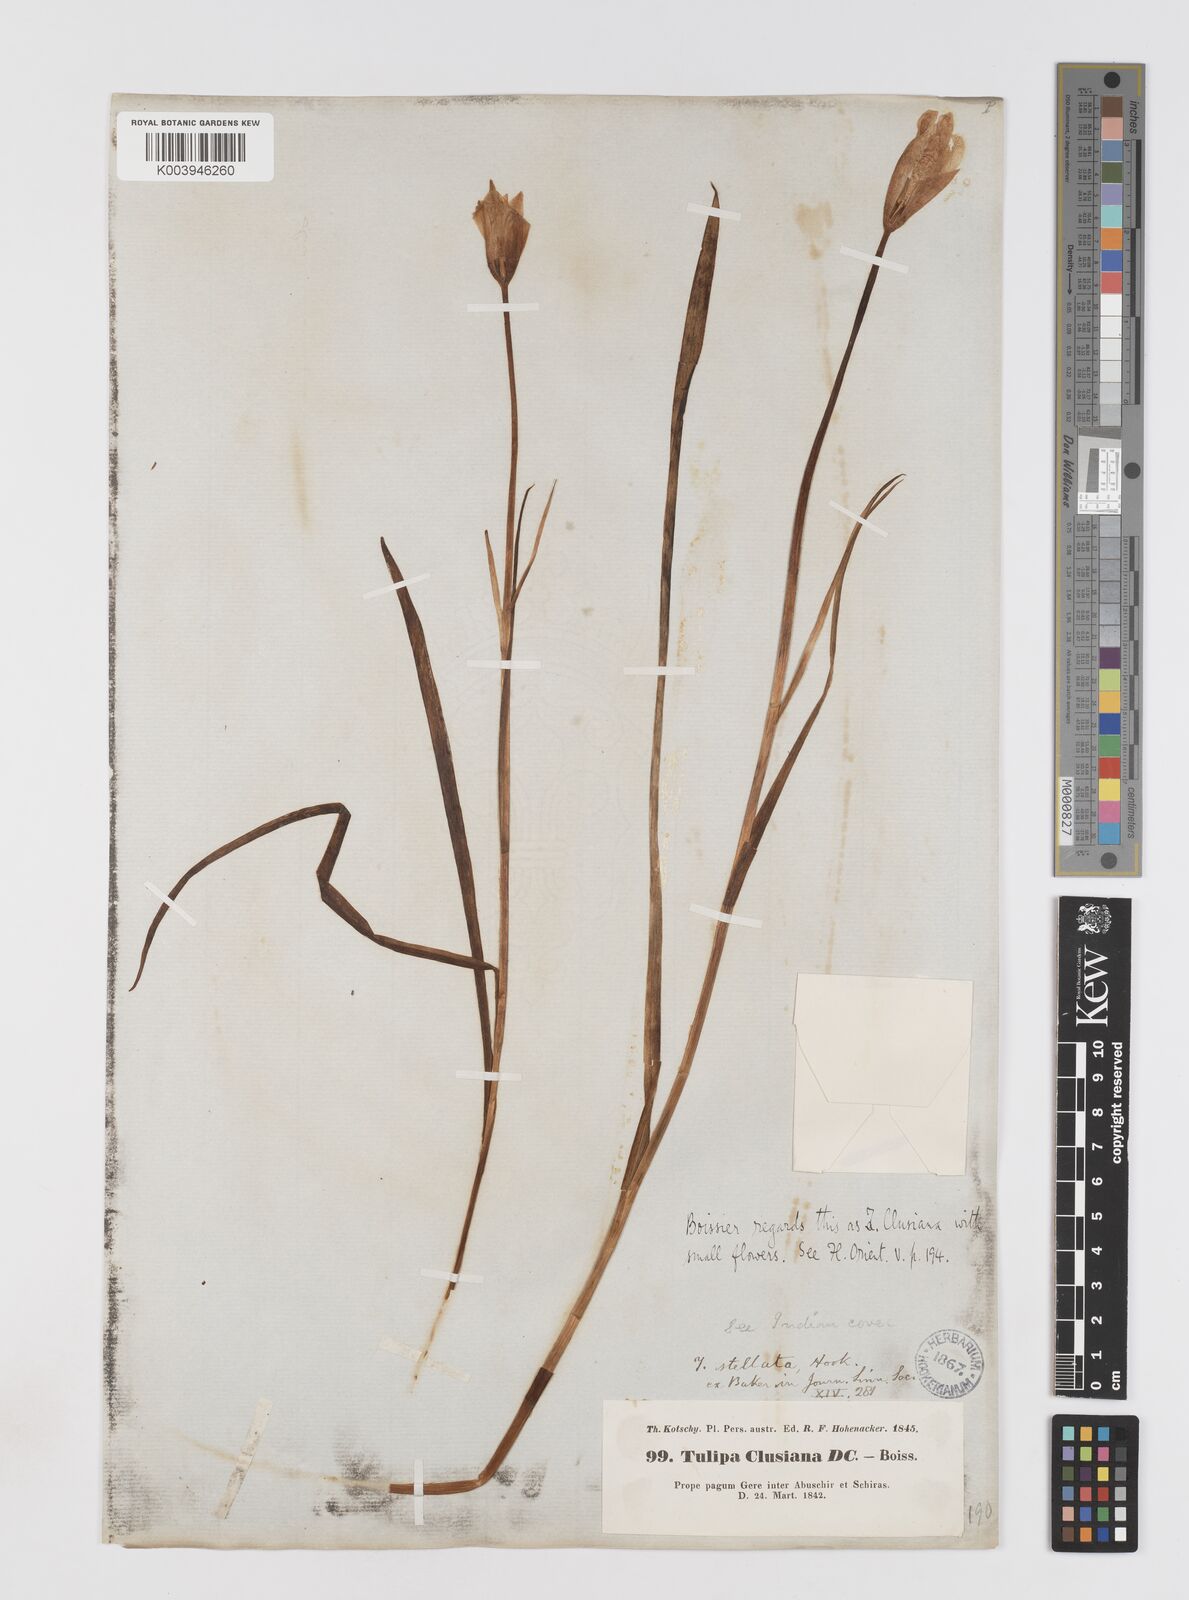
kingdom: Plantae
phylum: Tracheophyta
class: Liliopsida
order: Liliales
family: Liliaceae
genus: Tulipa
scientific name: Tulipa clusiana
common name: Lady tulip
